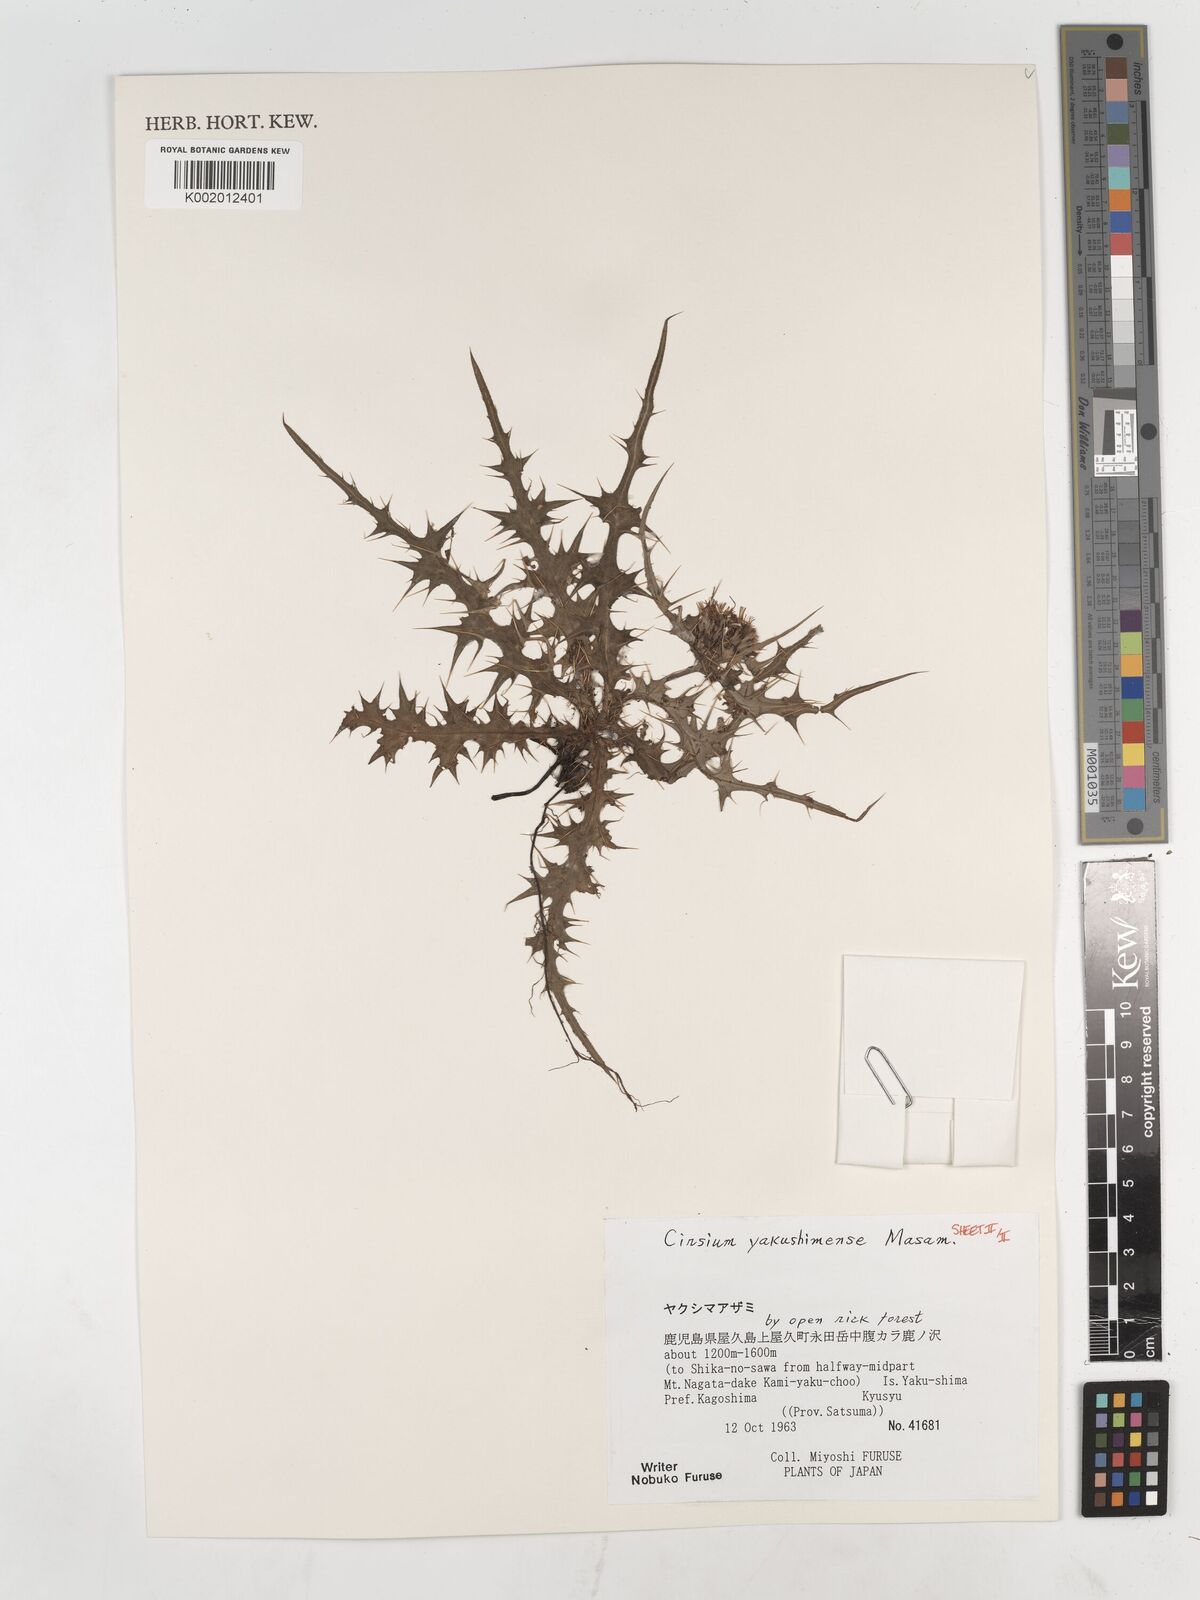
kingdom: Plantae
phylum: Tracheophyta
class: Magnoliopsida
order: Asterales
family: Asteraceae
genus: Cirsium
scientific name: Cirsium yakusimense
